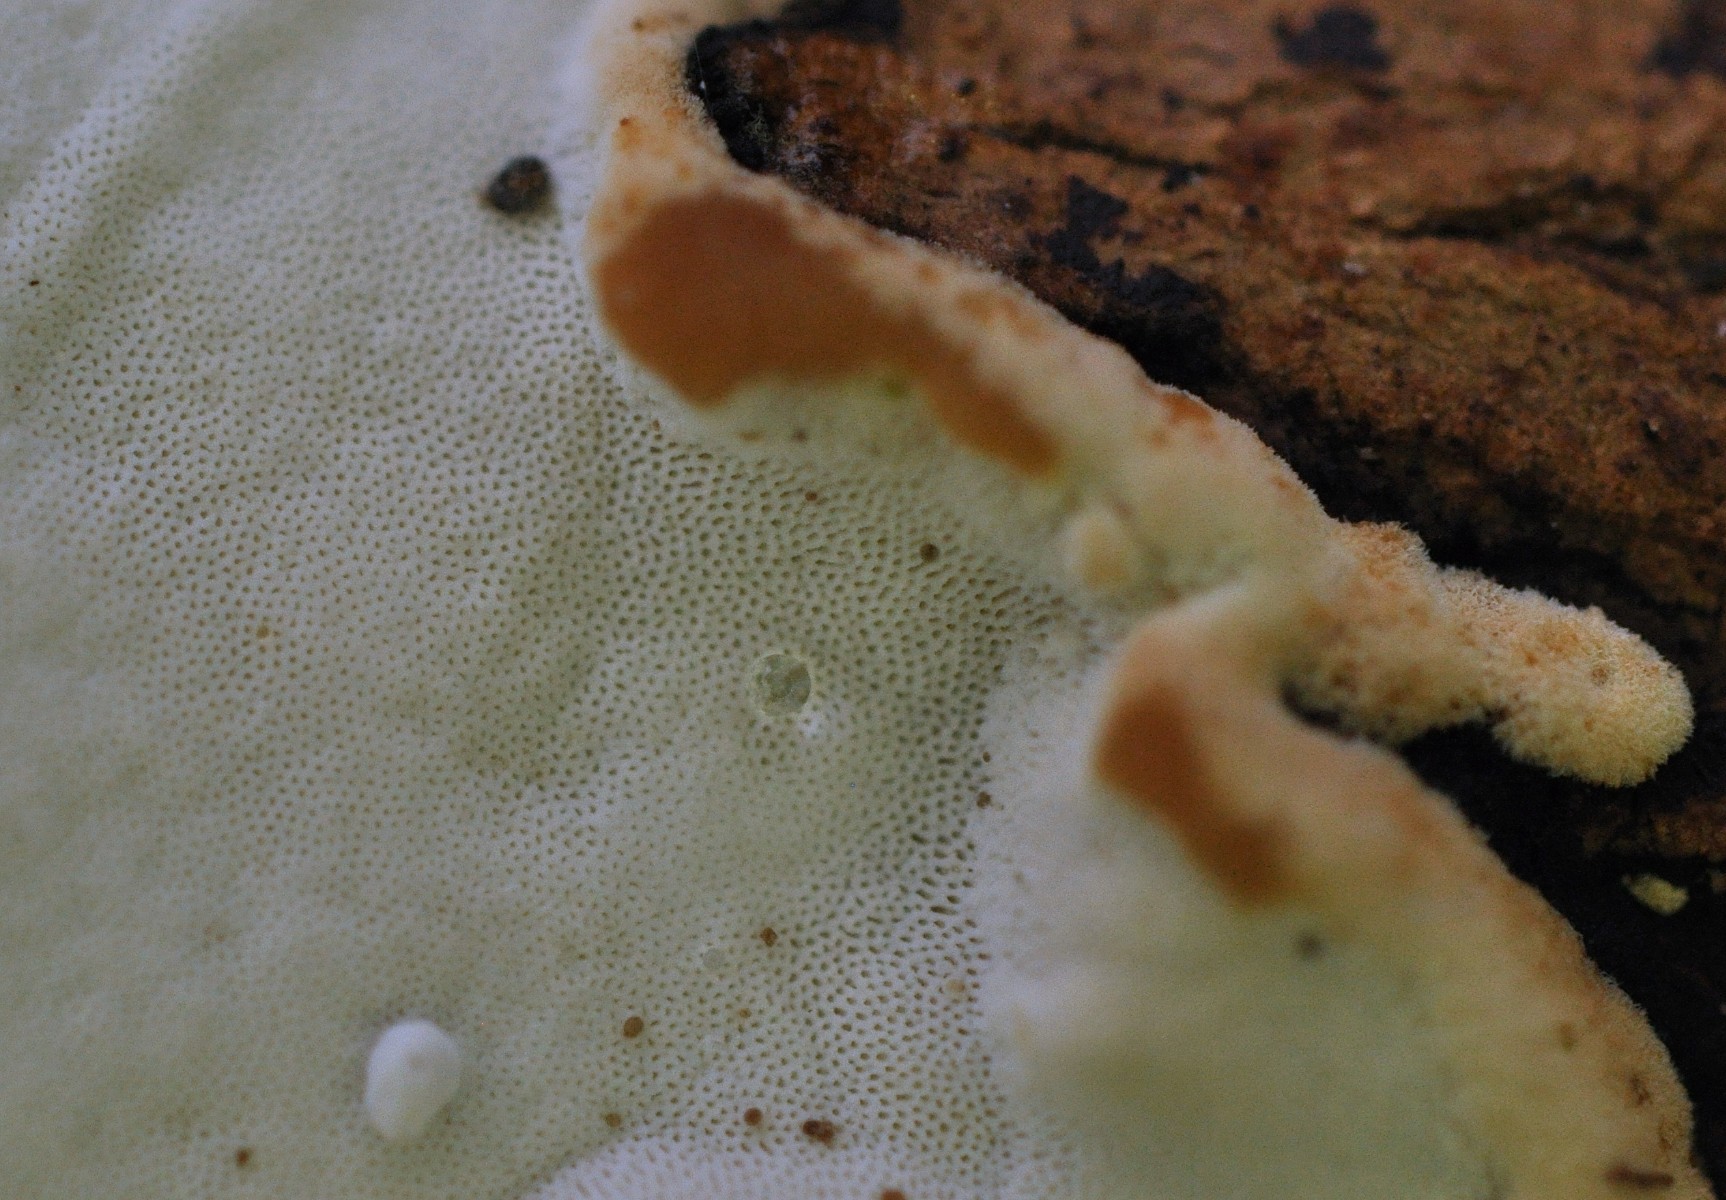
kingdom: Fungi
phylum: Basidiomycota
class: Agaricomycetes
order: Polyporales
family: Incrustoporiaceae
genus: Skeletocutis
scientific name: Skeletocutis nemoralis
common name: stor krystalporesvamp
